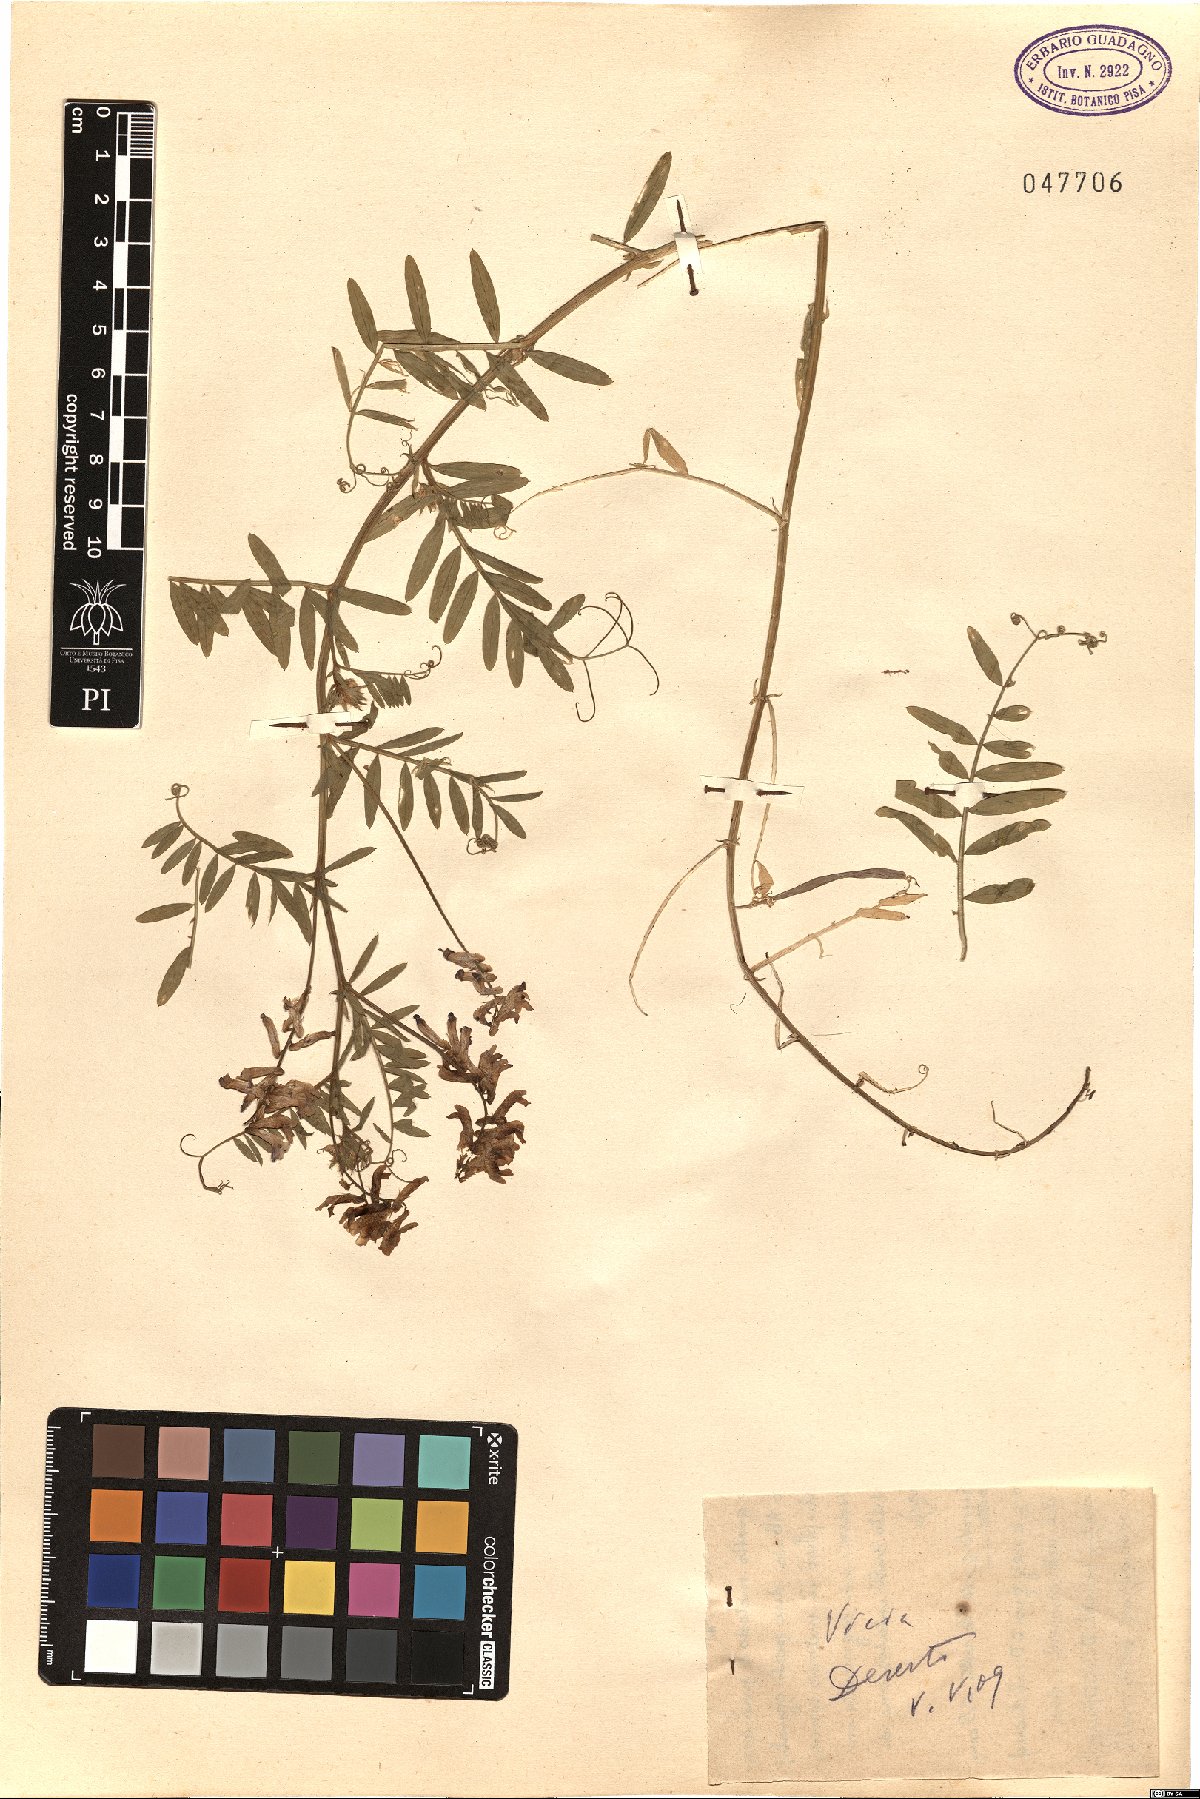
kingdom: Plantae
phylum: Tracheophyta
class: Magnoliopsida
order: Fabales
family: Fabaceae
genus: Vicia
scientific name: Vicia
